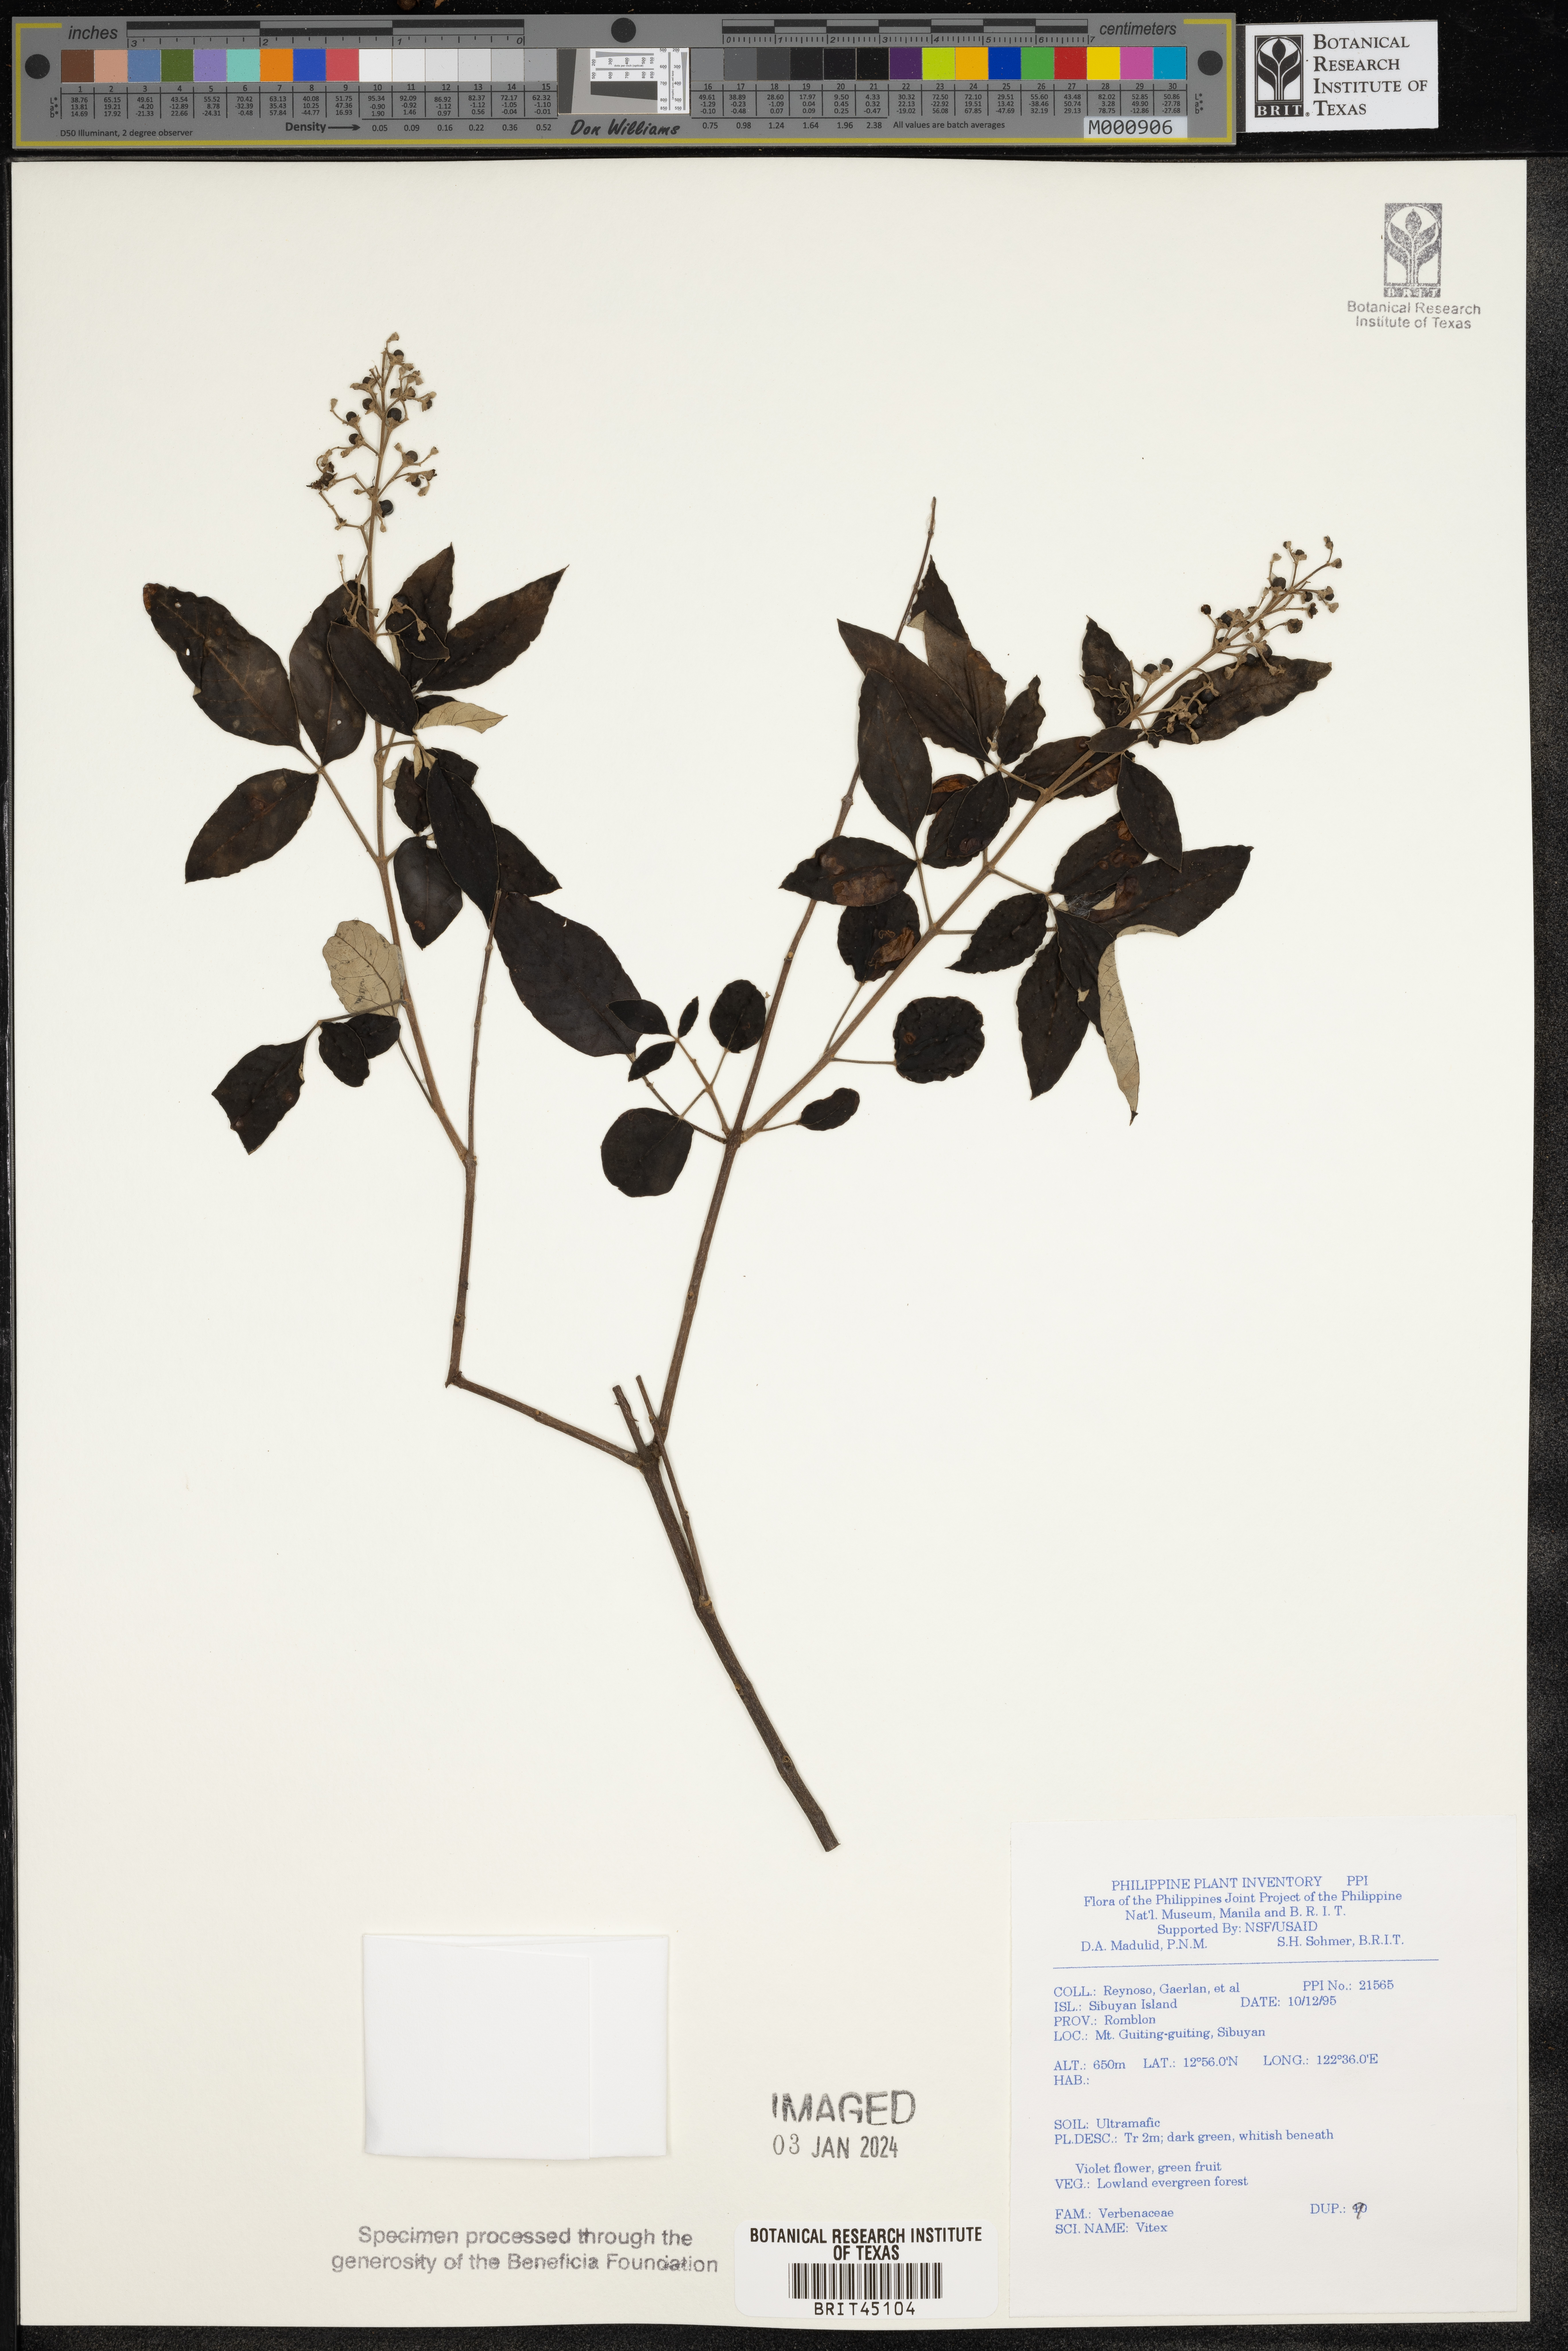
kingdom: Plantae
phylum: Tracheophyta
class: Magnoliopsida
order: Lamiales
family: Lamiaceae
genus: Vitex
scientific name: Vitex
